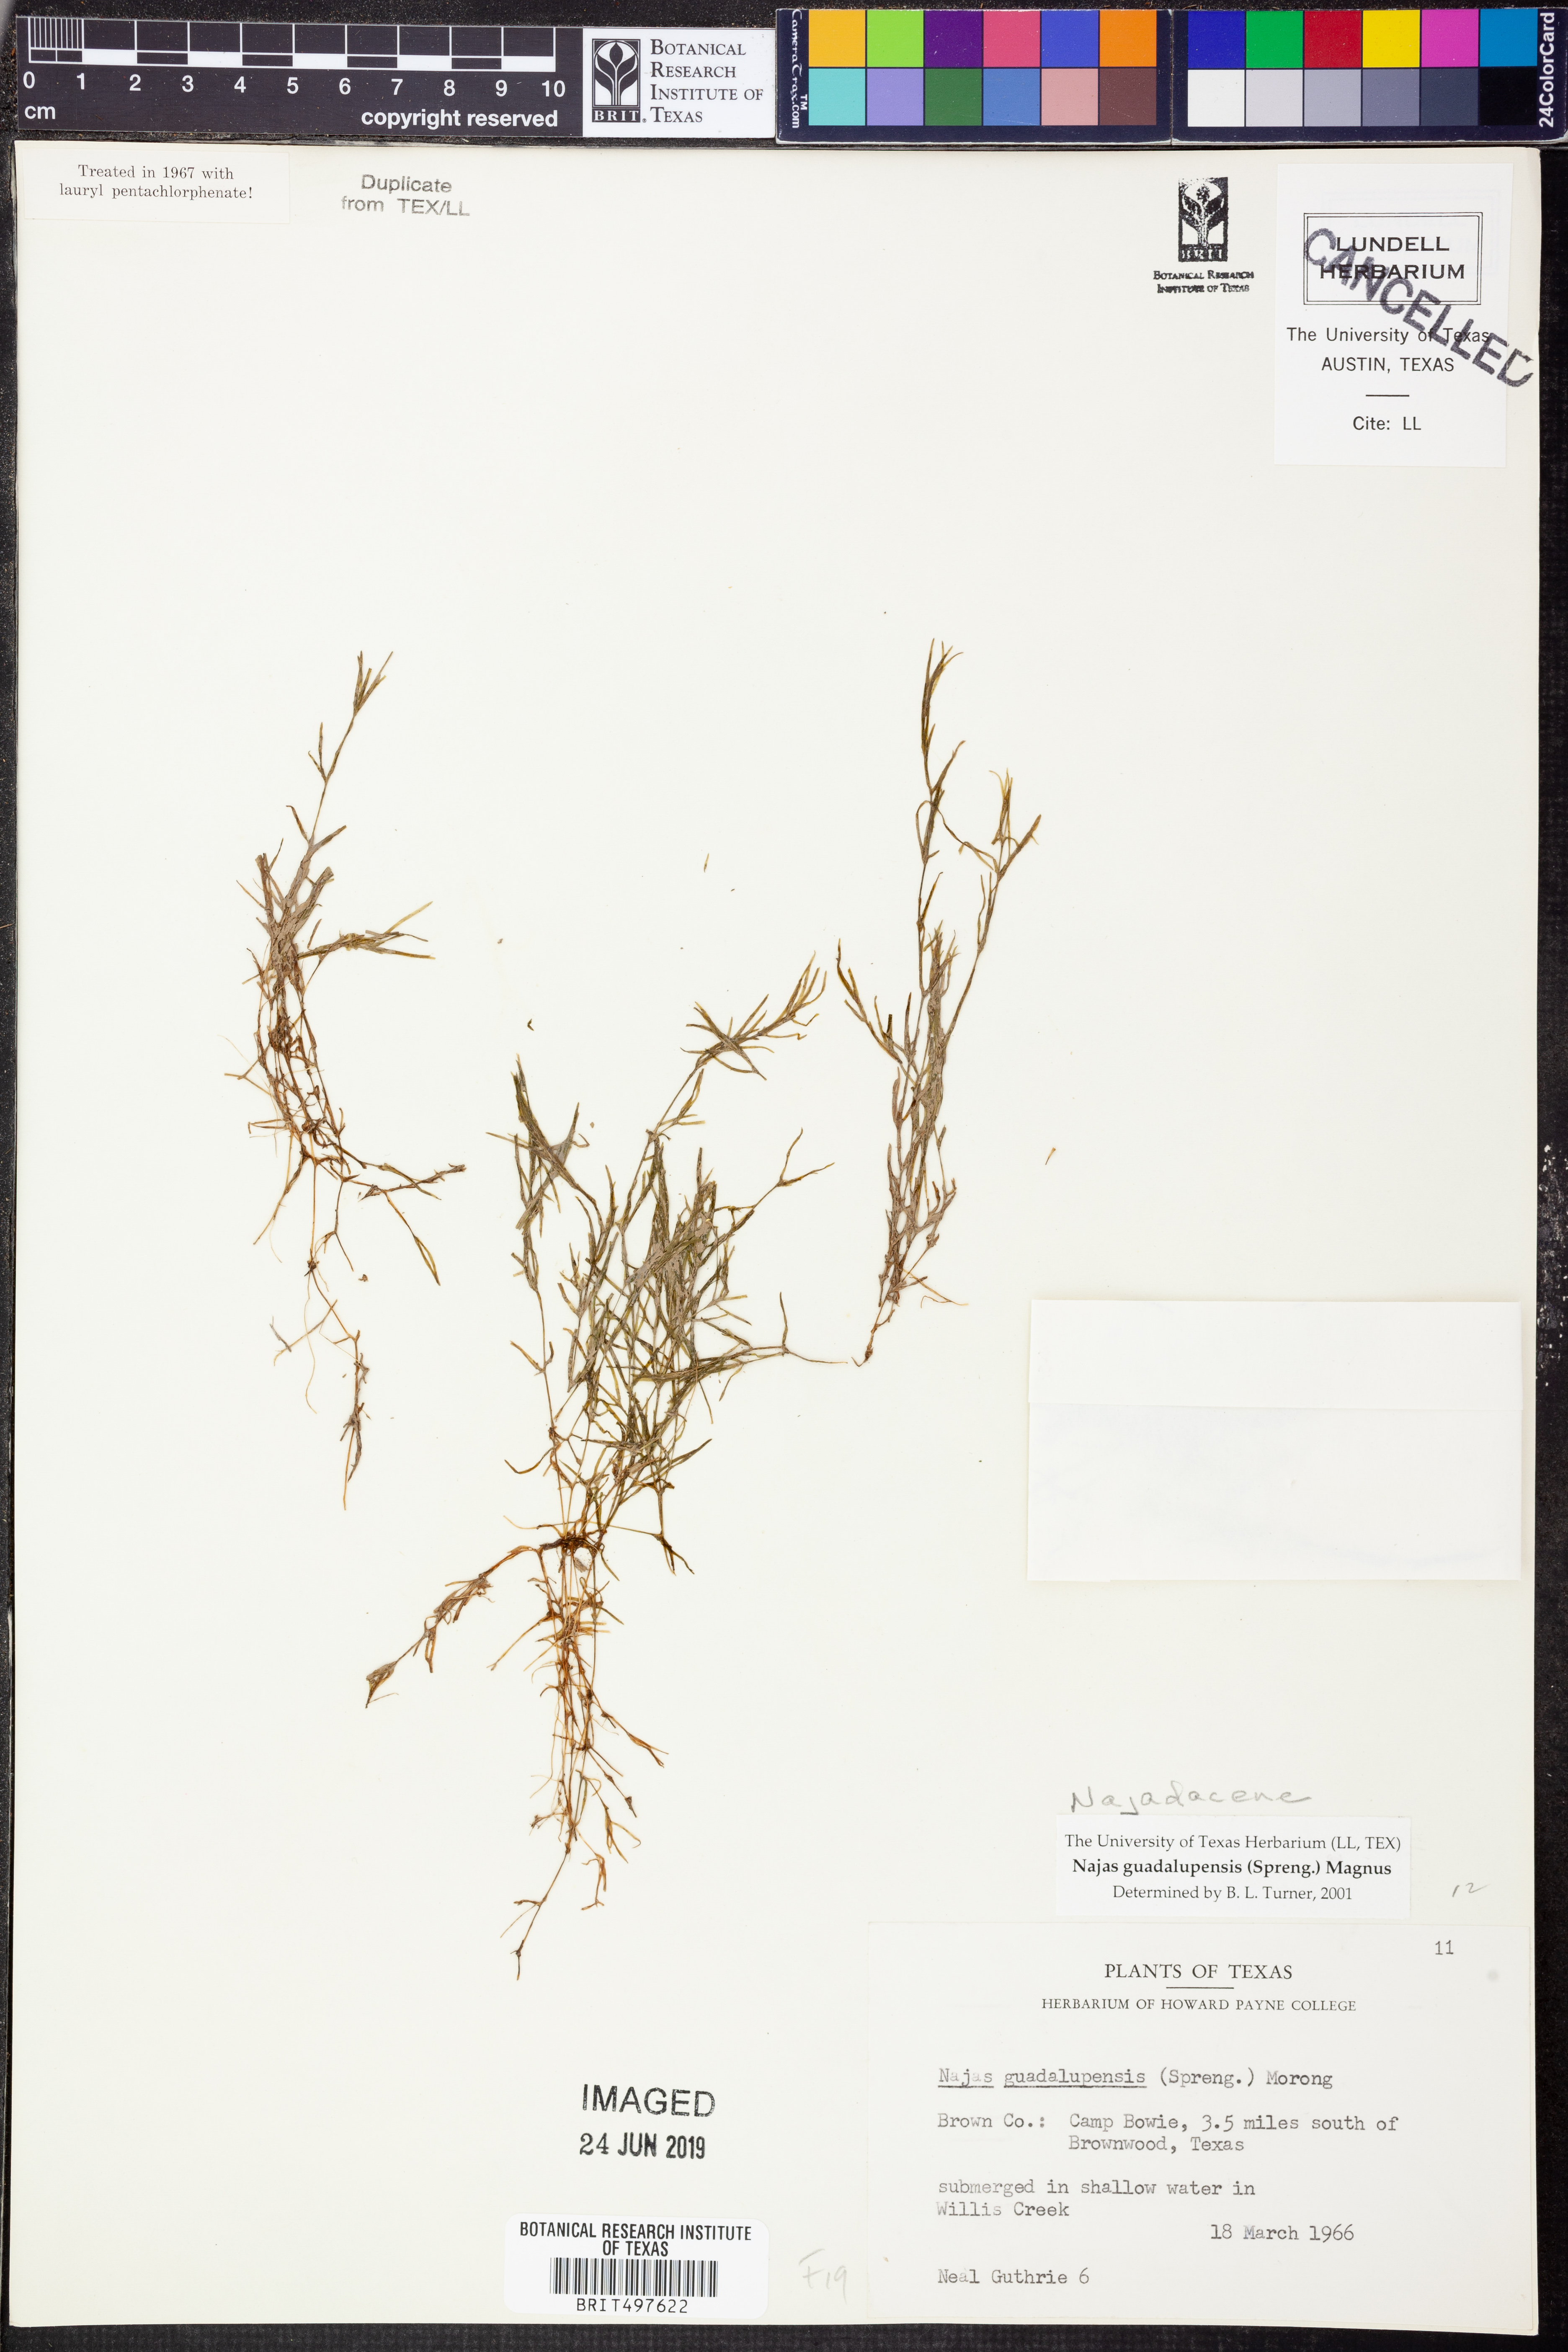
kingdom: Plantae
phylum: Tracheophyta
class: Liliopsida
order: Alismatales
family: Hydrocharitaceae
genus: Najas
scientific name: Najas guadalupensis
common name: Southern naiad
